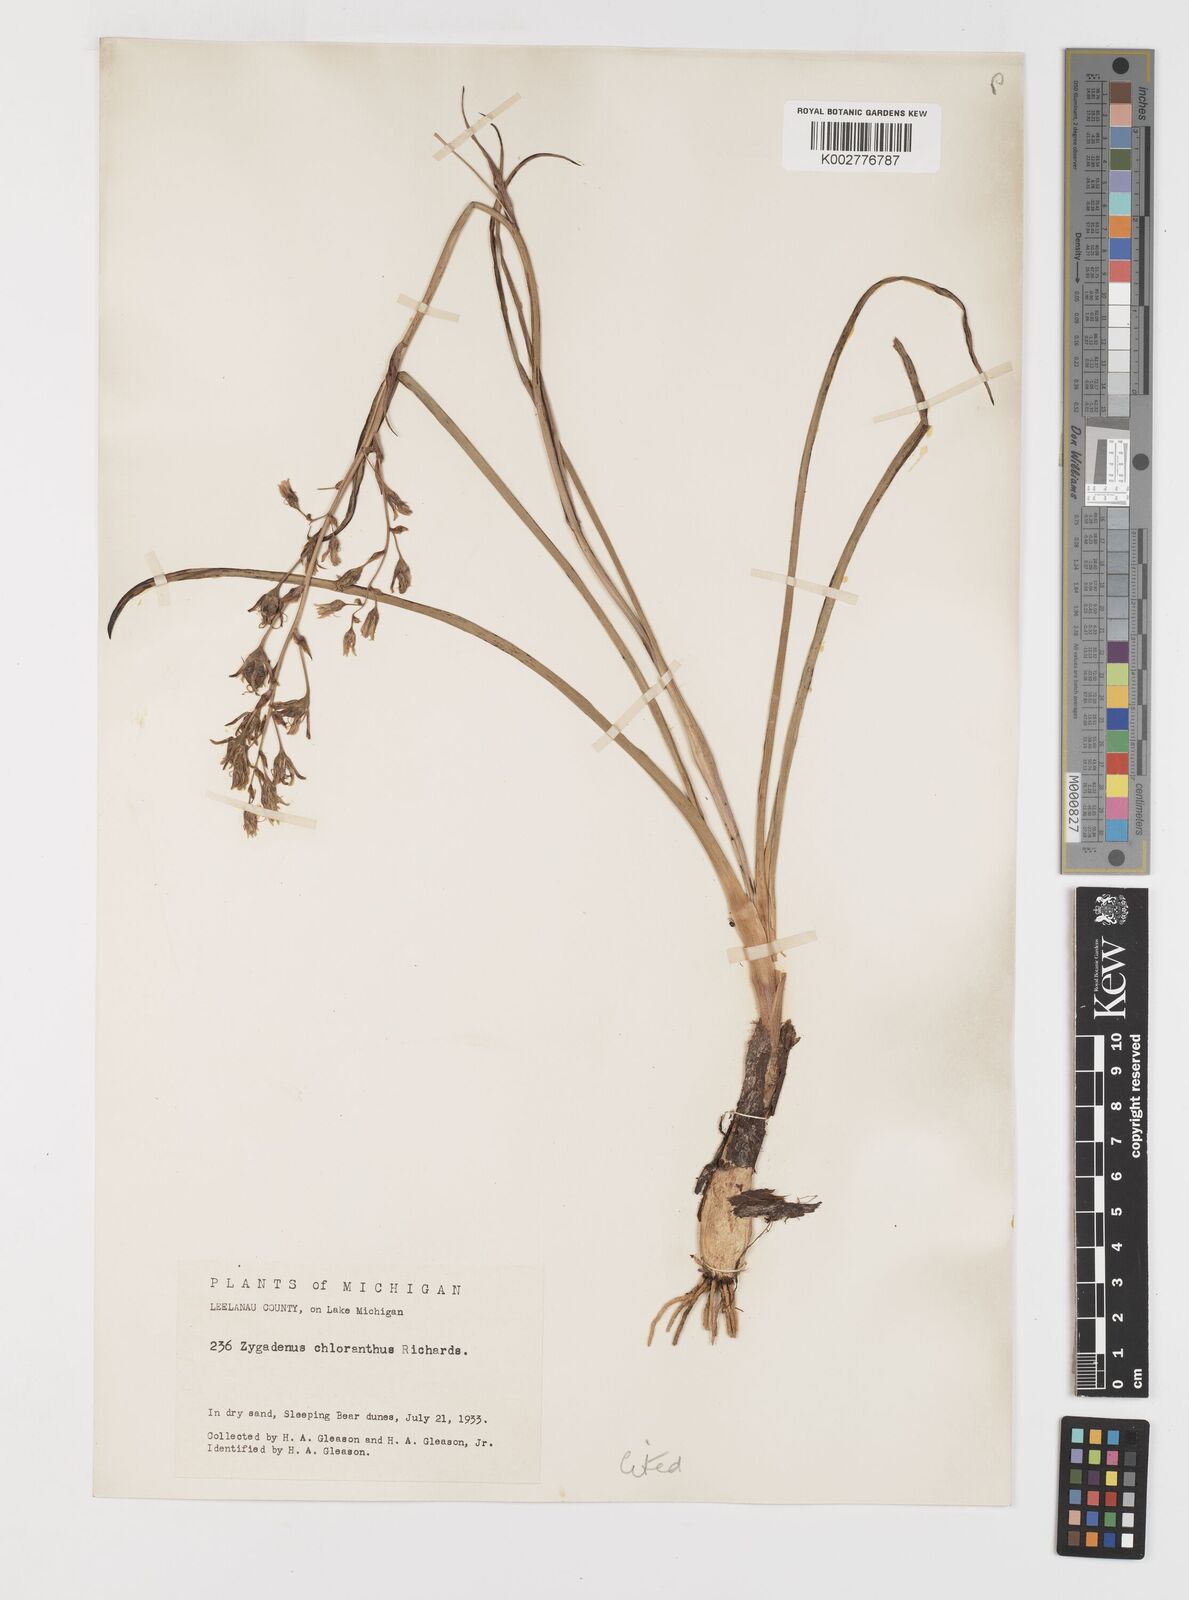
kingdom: Plantae
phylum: Tracheophyta
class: Liliopsida
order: Liliales
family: Melanthiaceae
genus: Anticlea
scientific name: Anticlea elegans
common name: Mountain death camas
